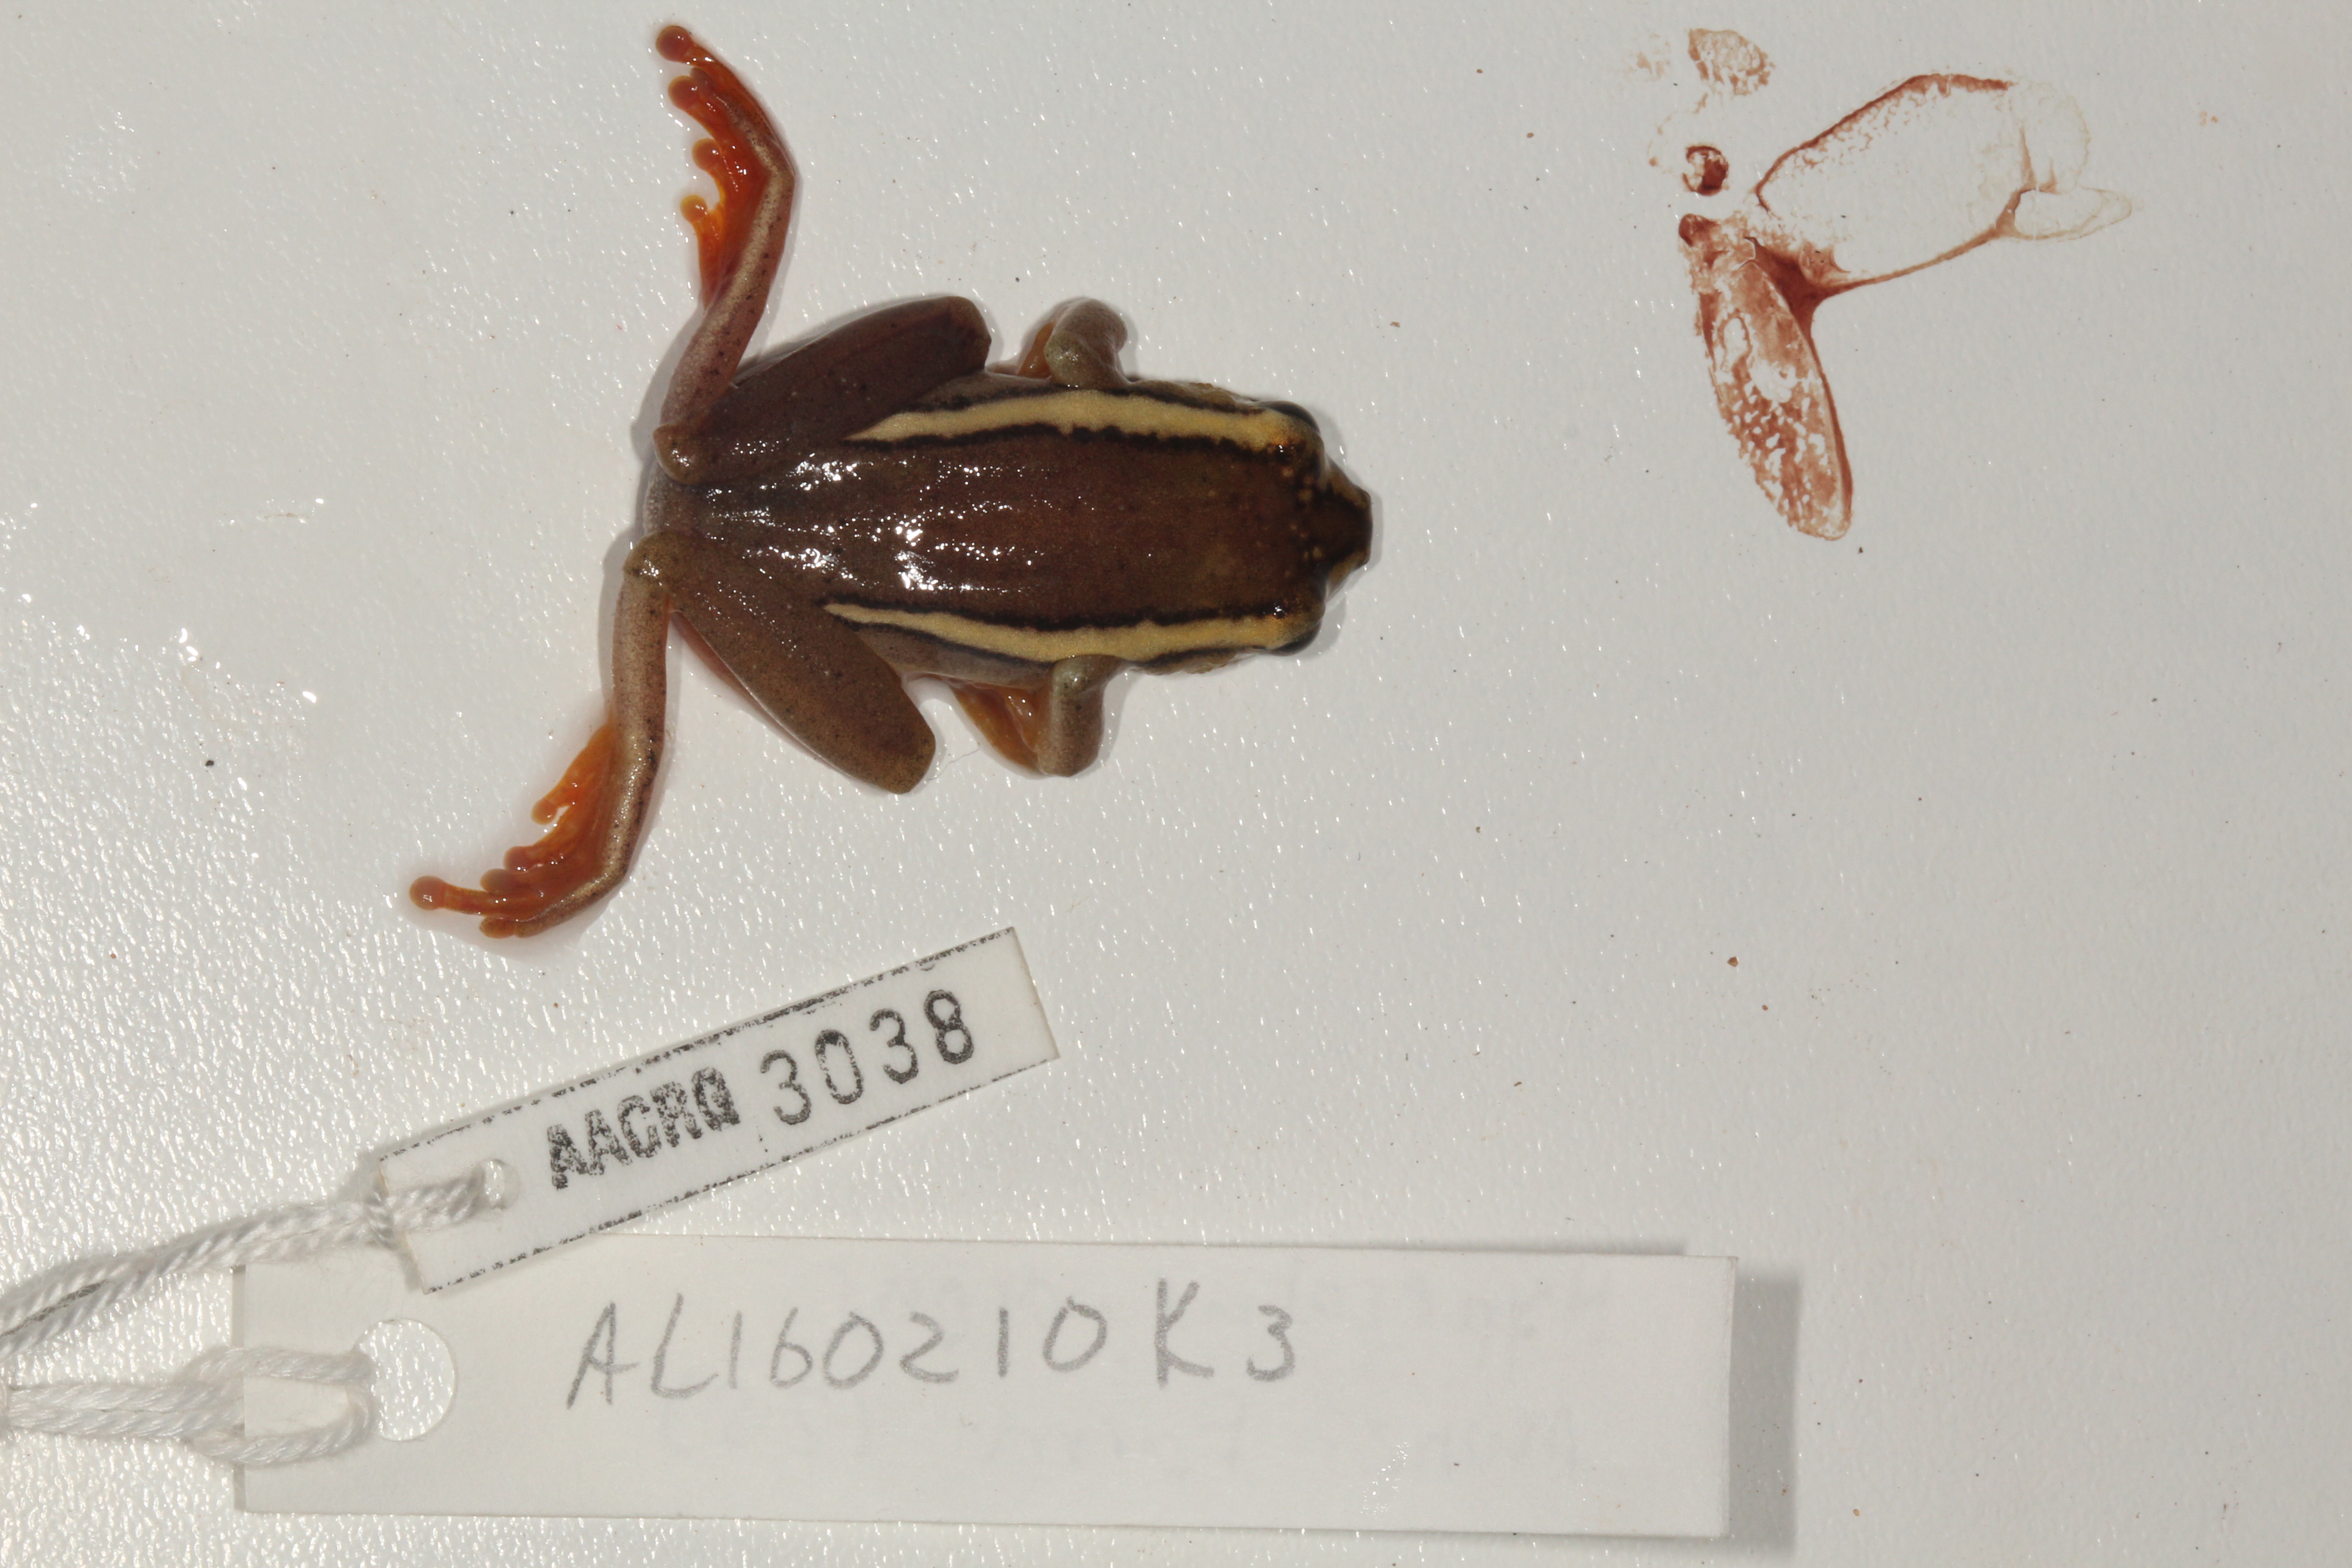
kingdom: Animalia
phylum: Chordata
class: Amphibia
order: Anura
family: Hyperoliidae
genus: Hyperolius
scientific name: Hyperolius argus
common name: Argus reed frog
